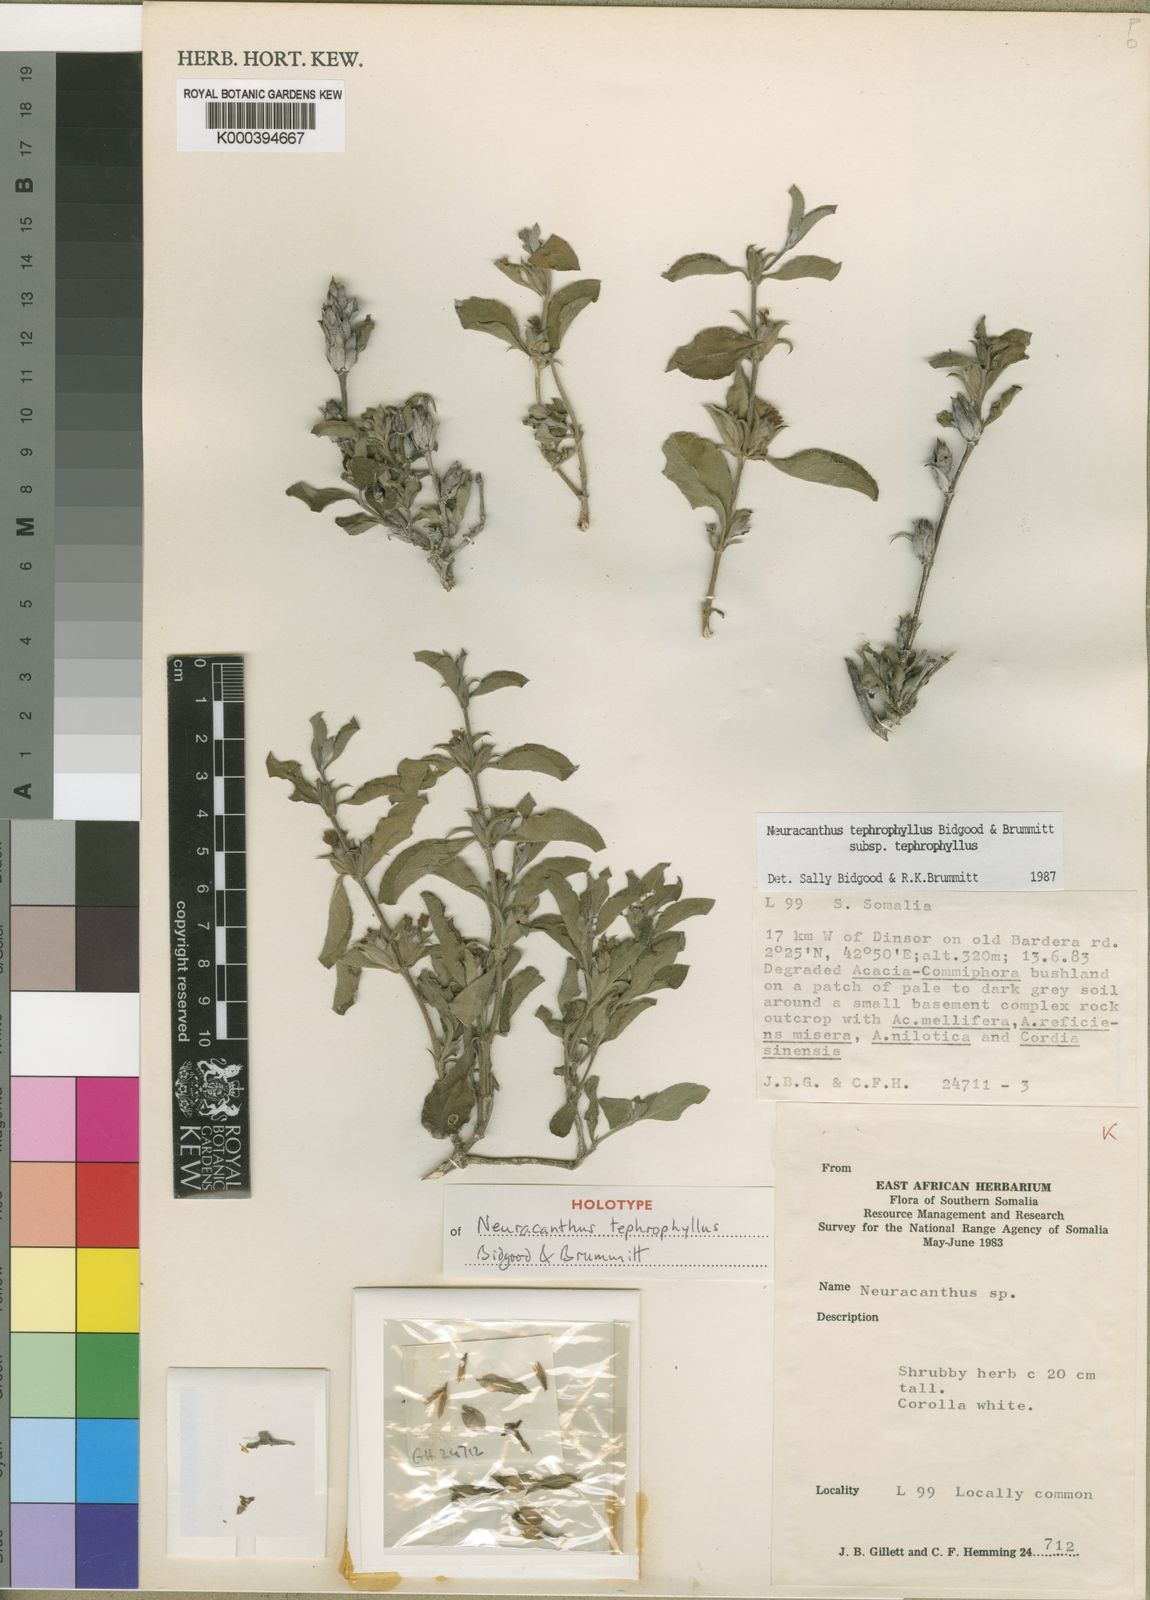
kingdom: Plantae
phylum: Tracheophyta
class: Magnoliopsida
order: Lamiales
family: Acanthaceae
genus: Neuracanthus
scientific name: Neuracanthus tephrophyllus
